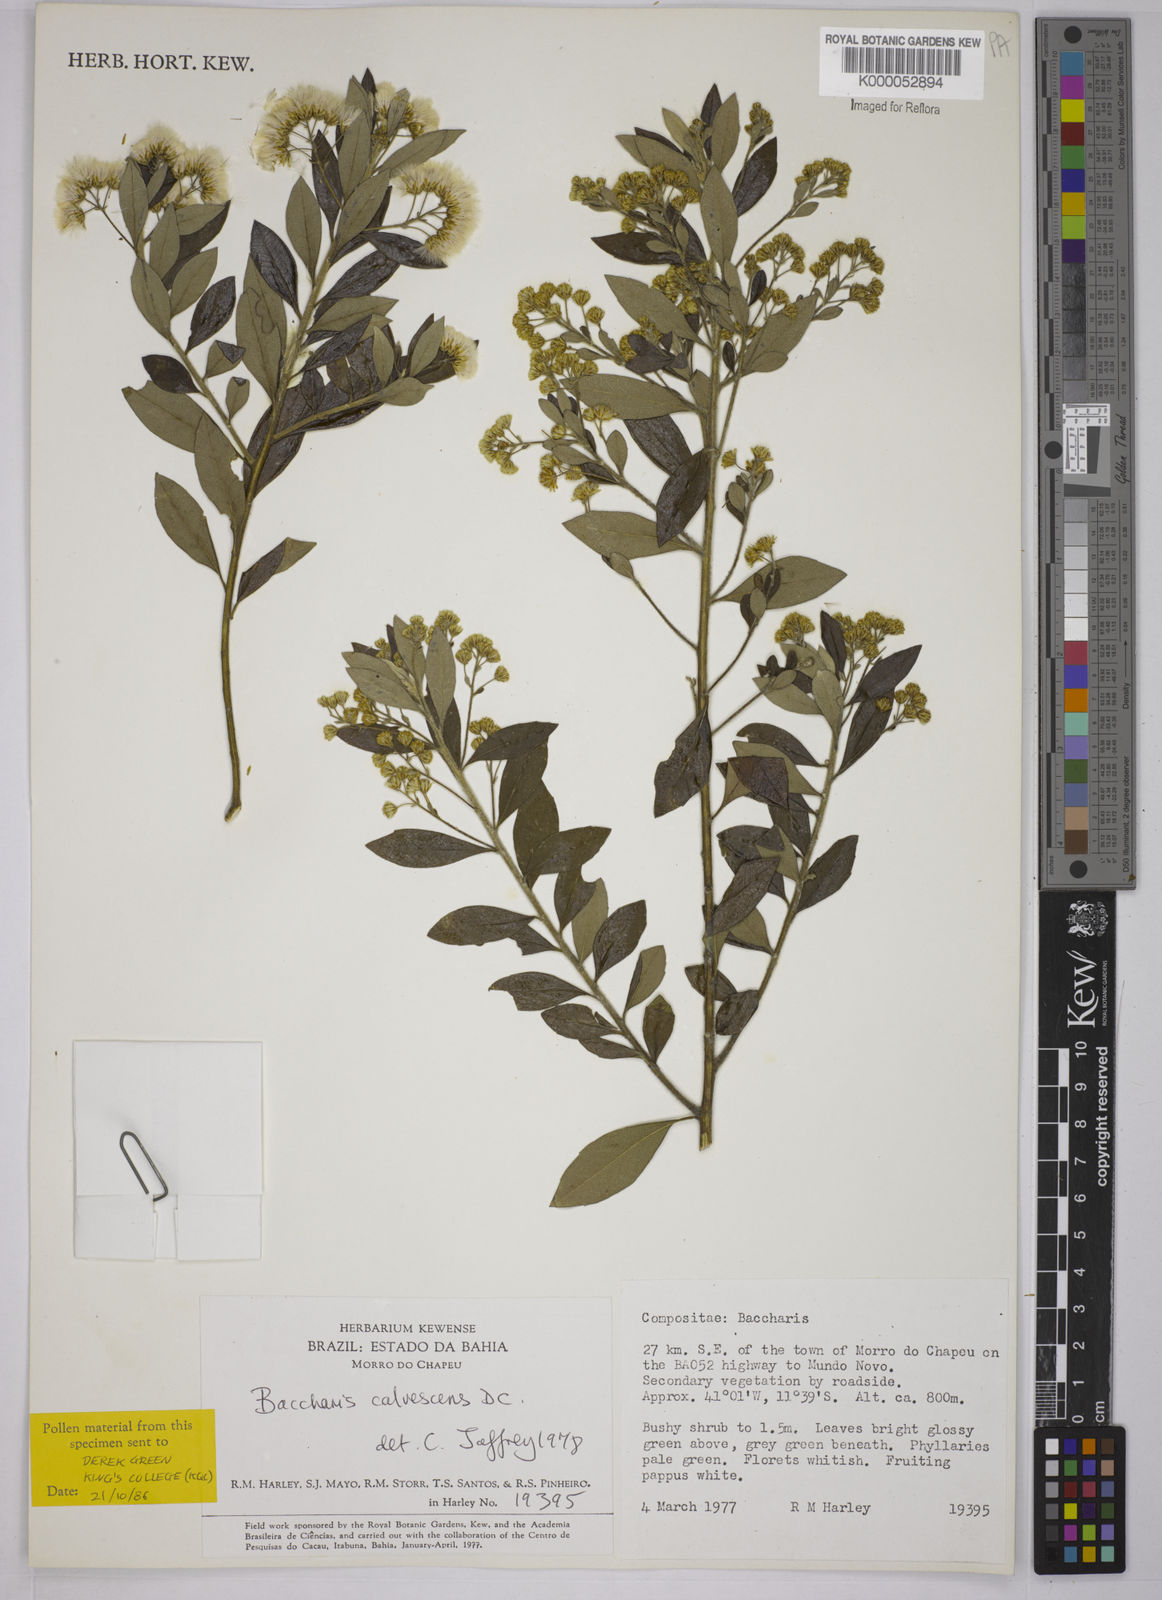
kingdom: Plantae
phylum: Tracheophyta
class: Magnoliopsida
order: Asterales
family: Asteraceae
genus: Baccharis
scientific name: Baccharis calvescens
